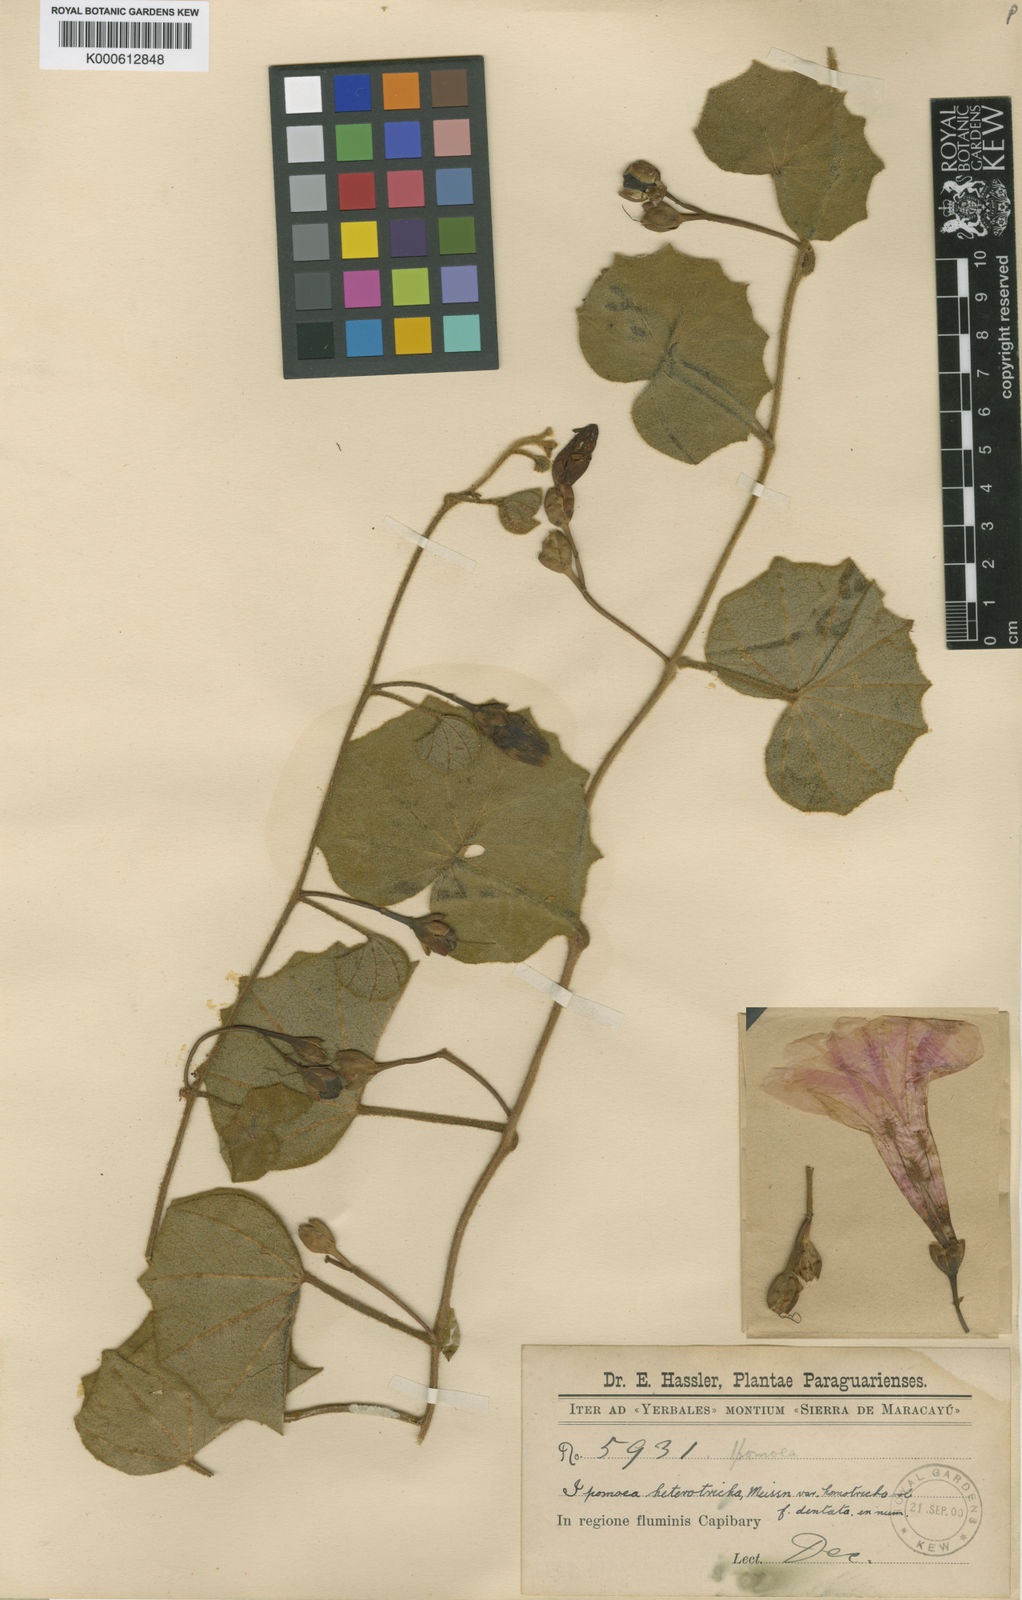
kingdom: Plantae
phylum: Tracheophyta
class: Magnoliopsida
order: Solanales
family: Convolvulaceae
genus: Ipomoea
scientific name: Ipomoea homotrichoidea
